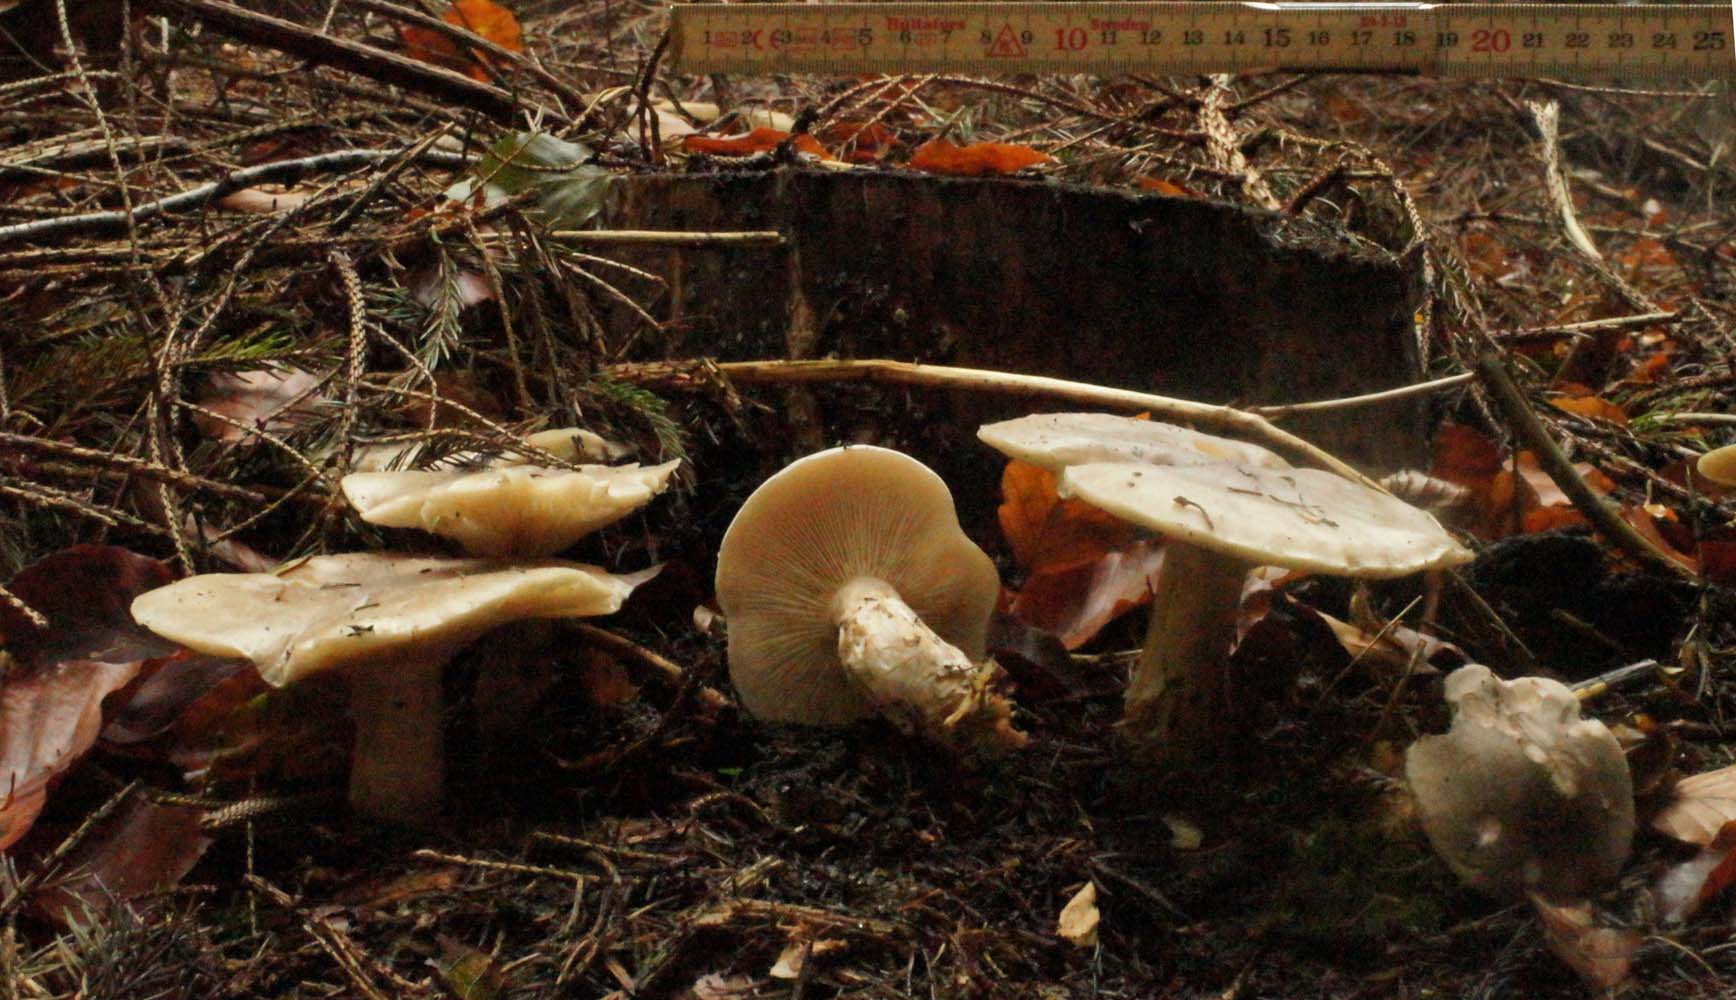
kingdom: Fungi
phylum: Basidiomycota
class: Agaricomycetes
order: Agaricales
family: Tricholomataceae
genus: Clitocybe
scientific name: Clitocybe nebularis
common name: tåge-tragthat
